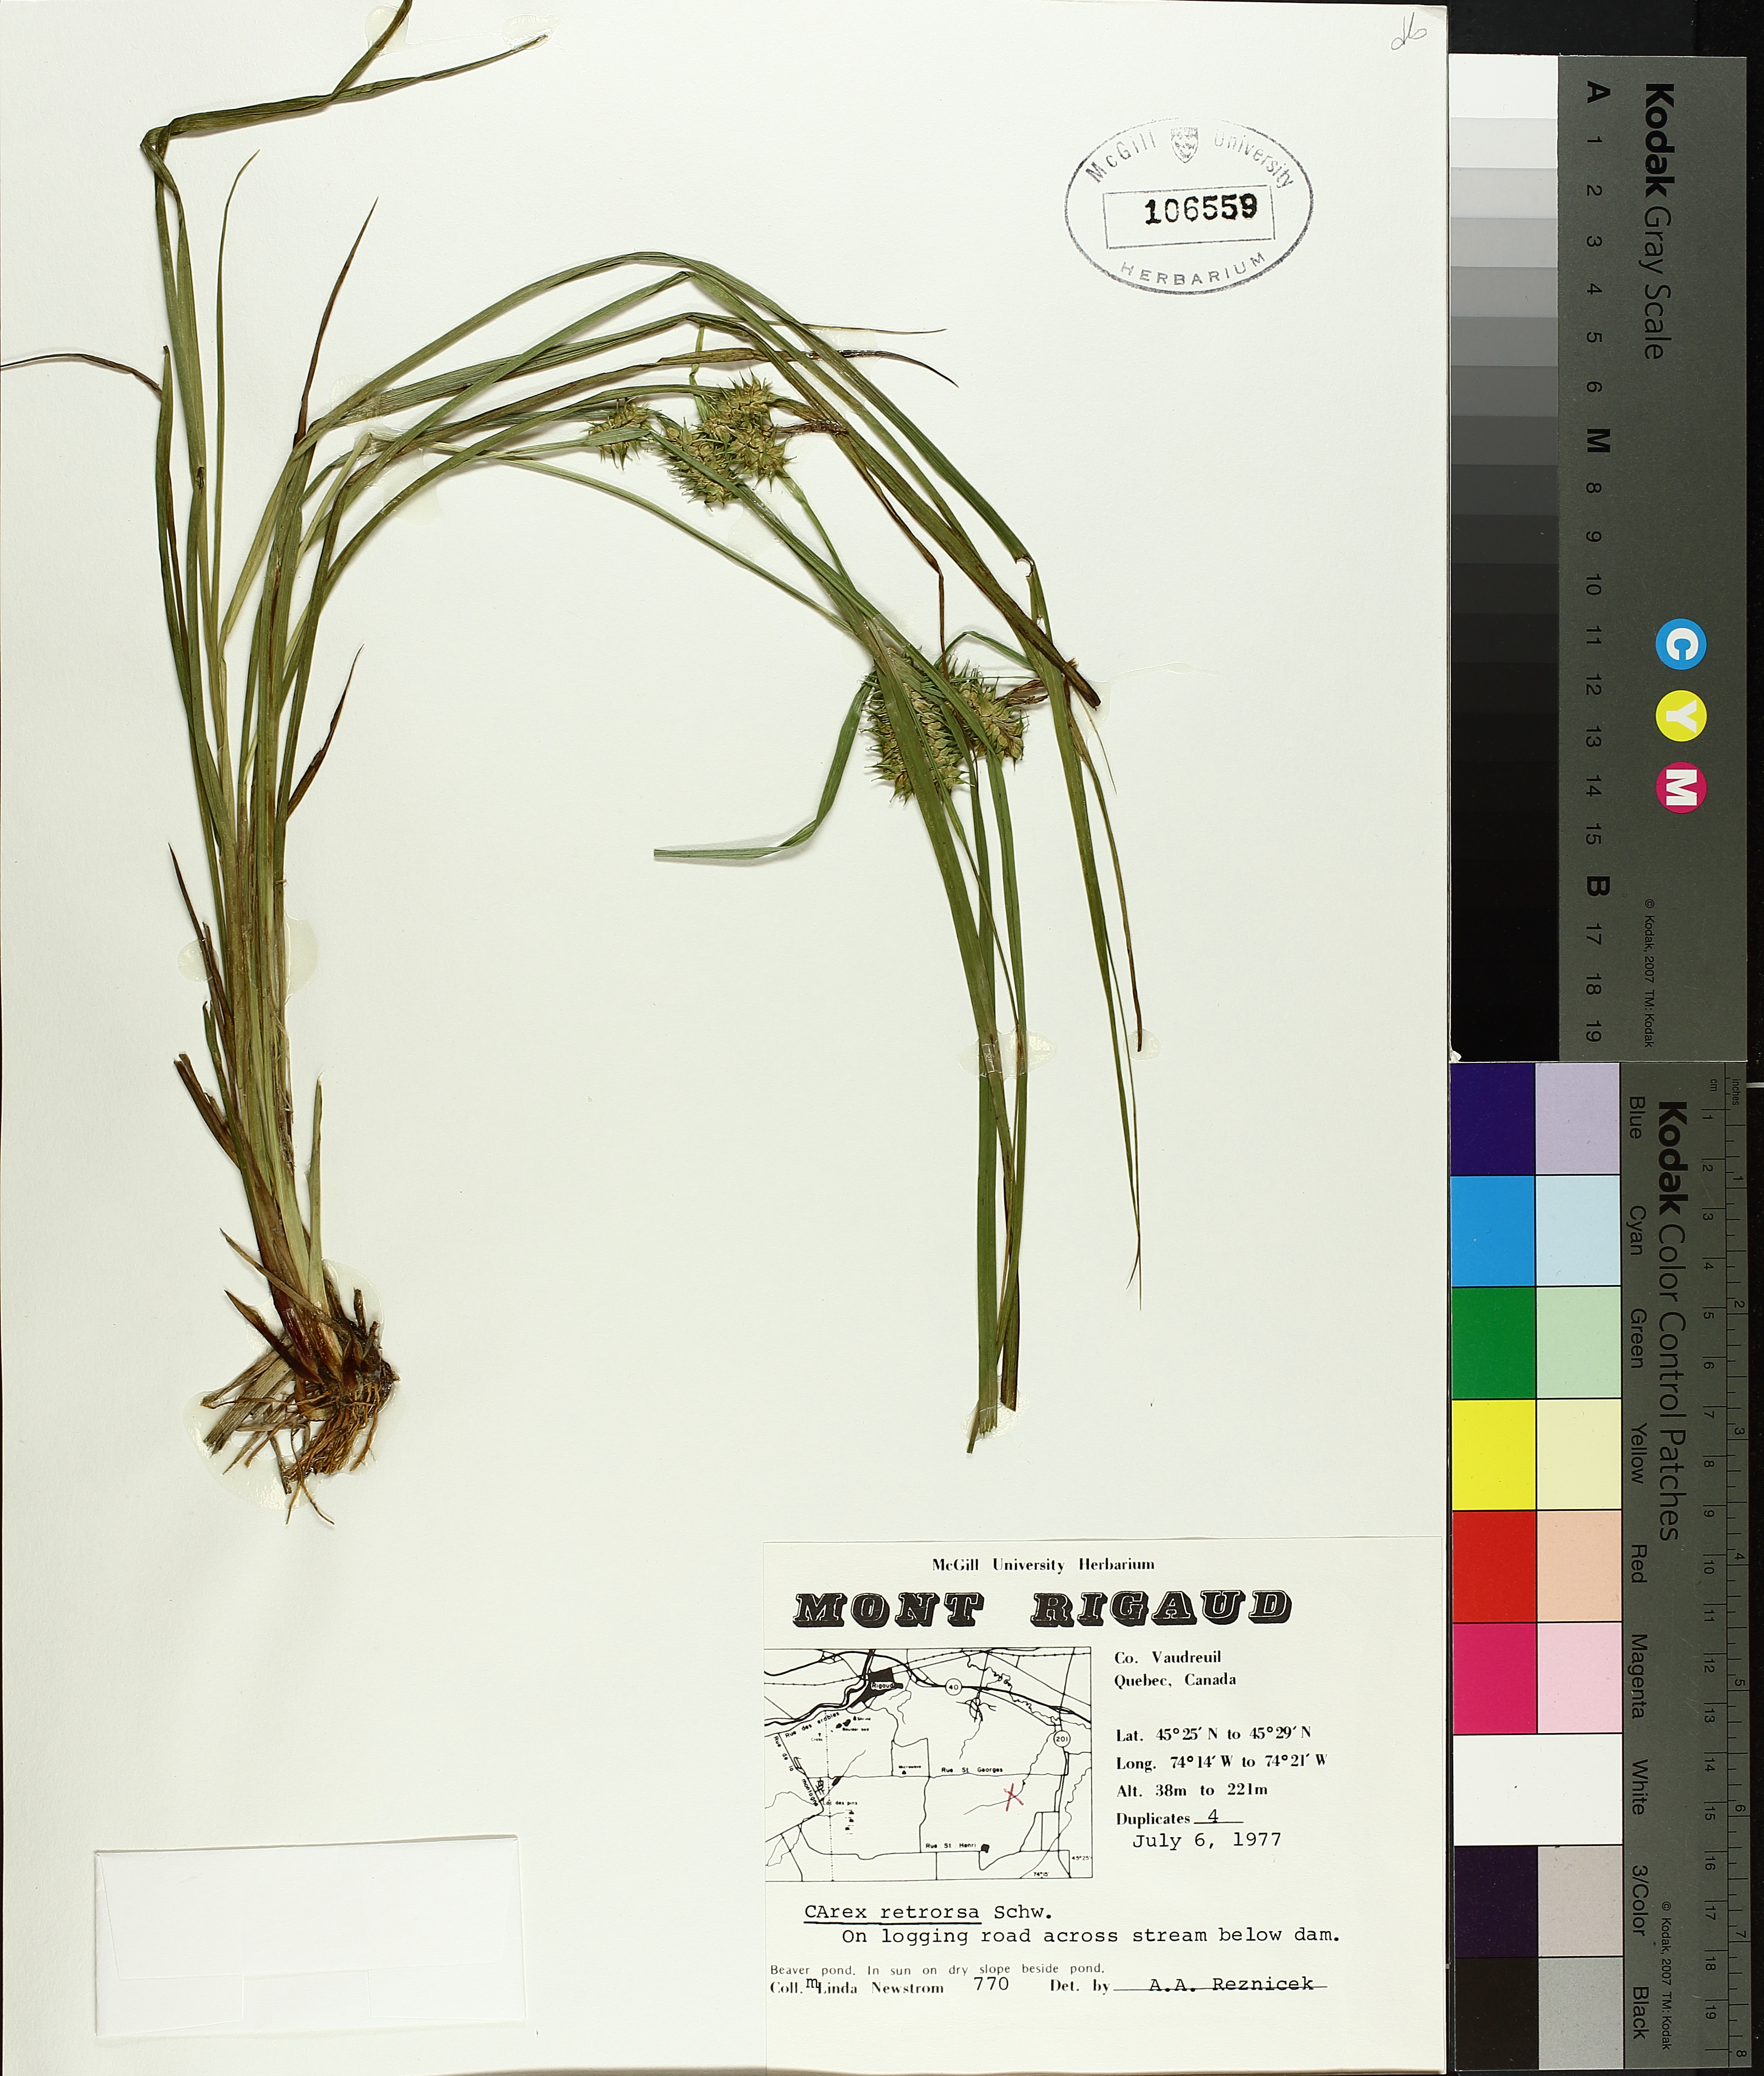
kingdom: Plantae
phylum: Tracheophyta
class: Liliopsida
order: Poales
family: Cyperaceae
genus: Carex
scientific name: Carex retrorsa
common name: Knot-sheath sedge
